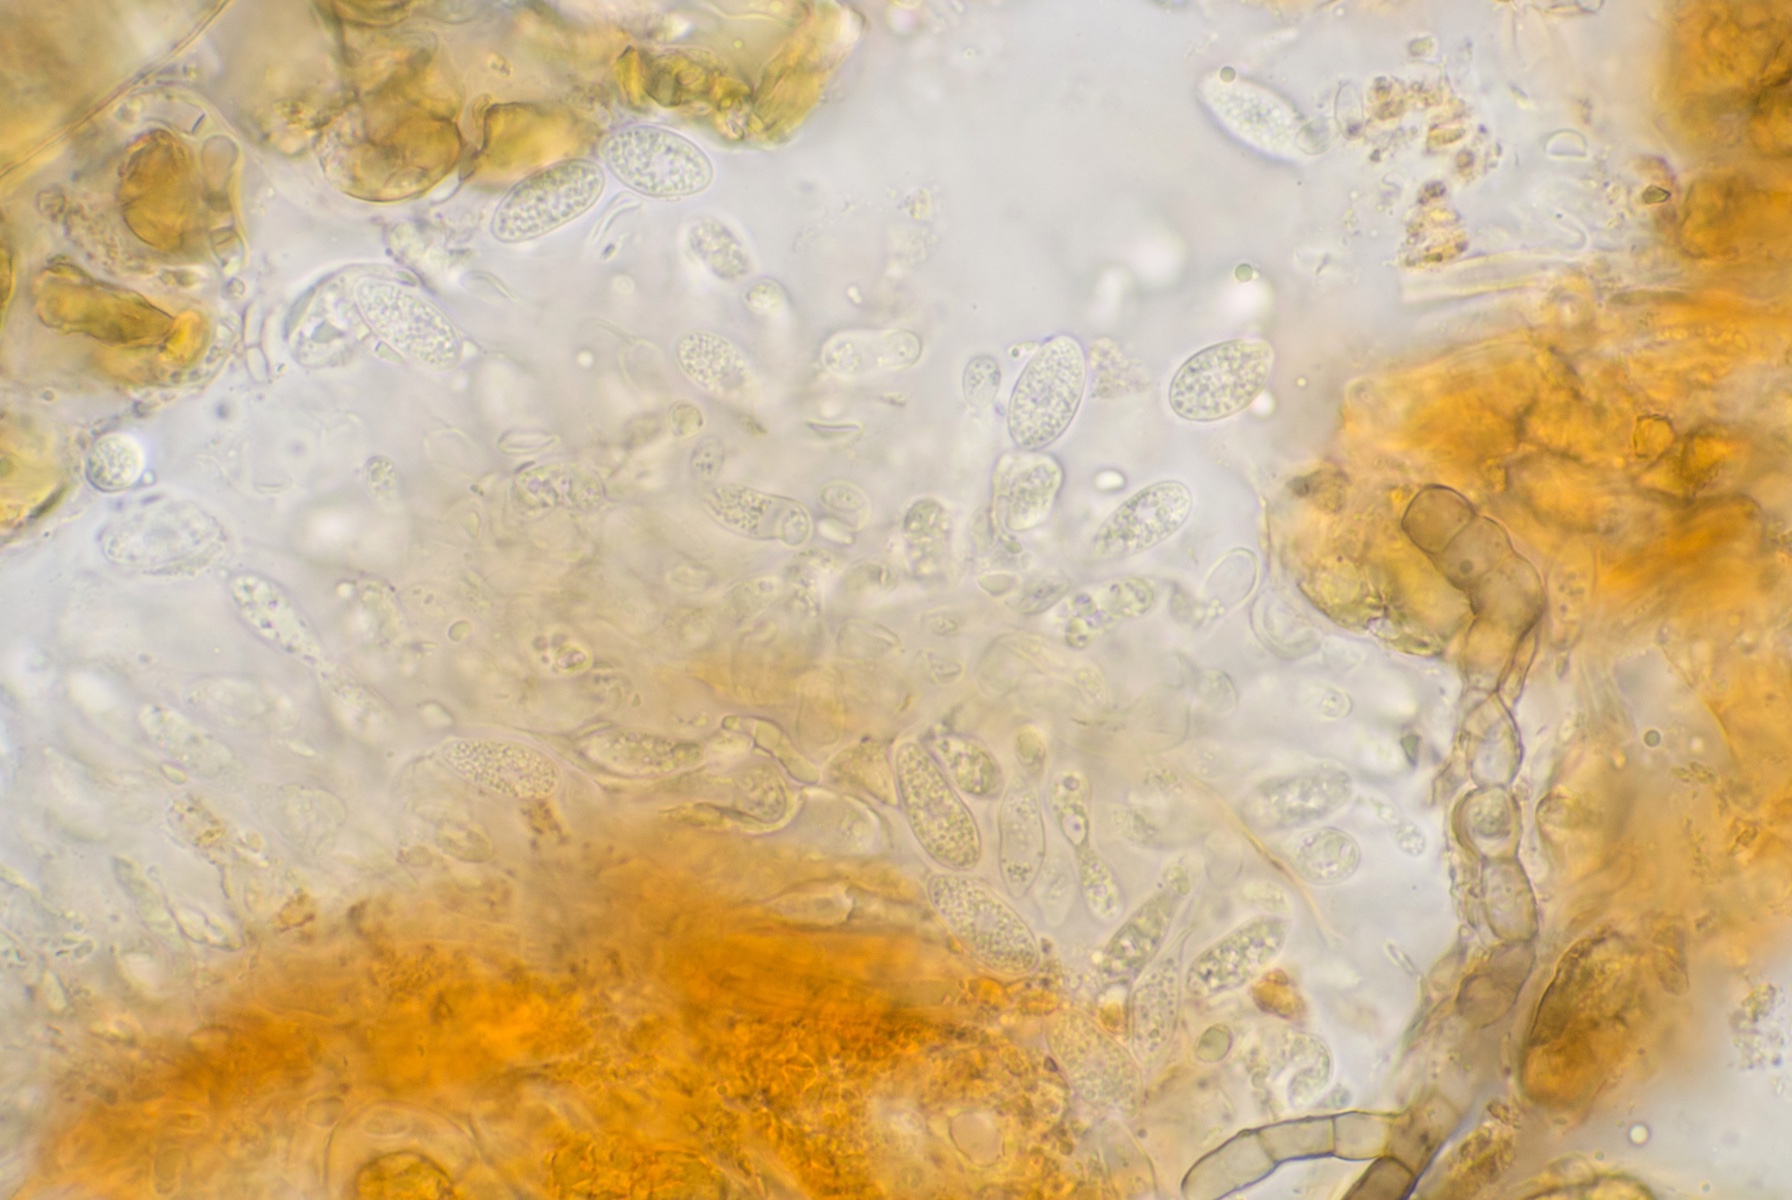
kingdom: Fungi
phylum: Ascomycota
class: Leotiomycetes
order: Helotiales
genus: Cryptocline
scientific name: Cryptocline taxicola
